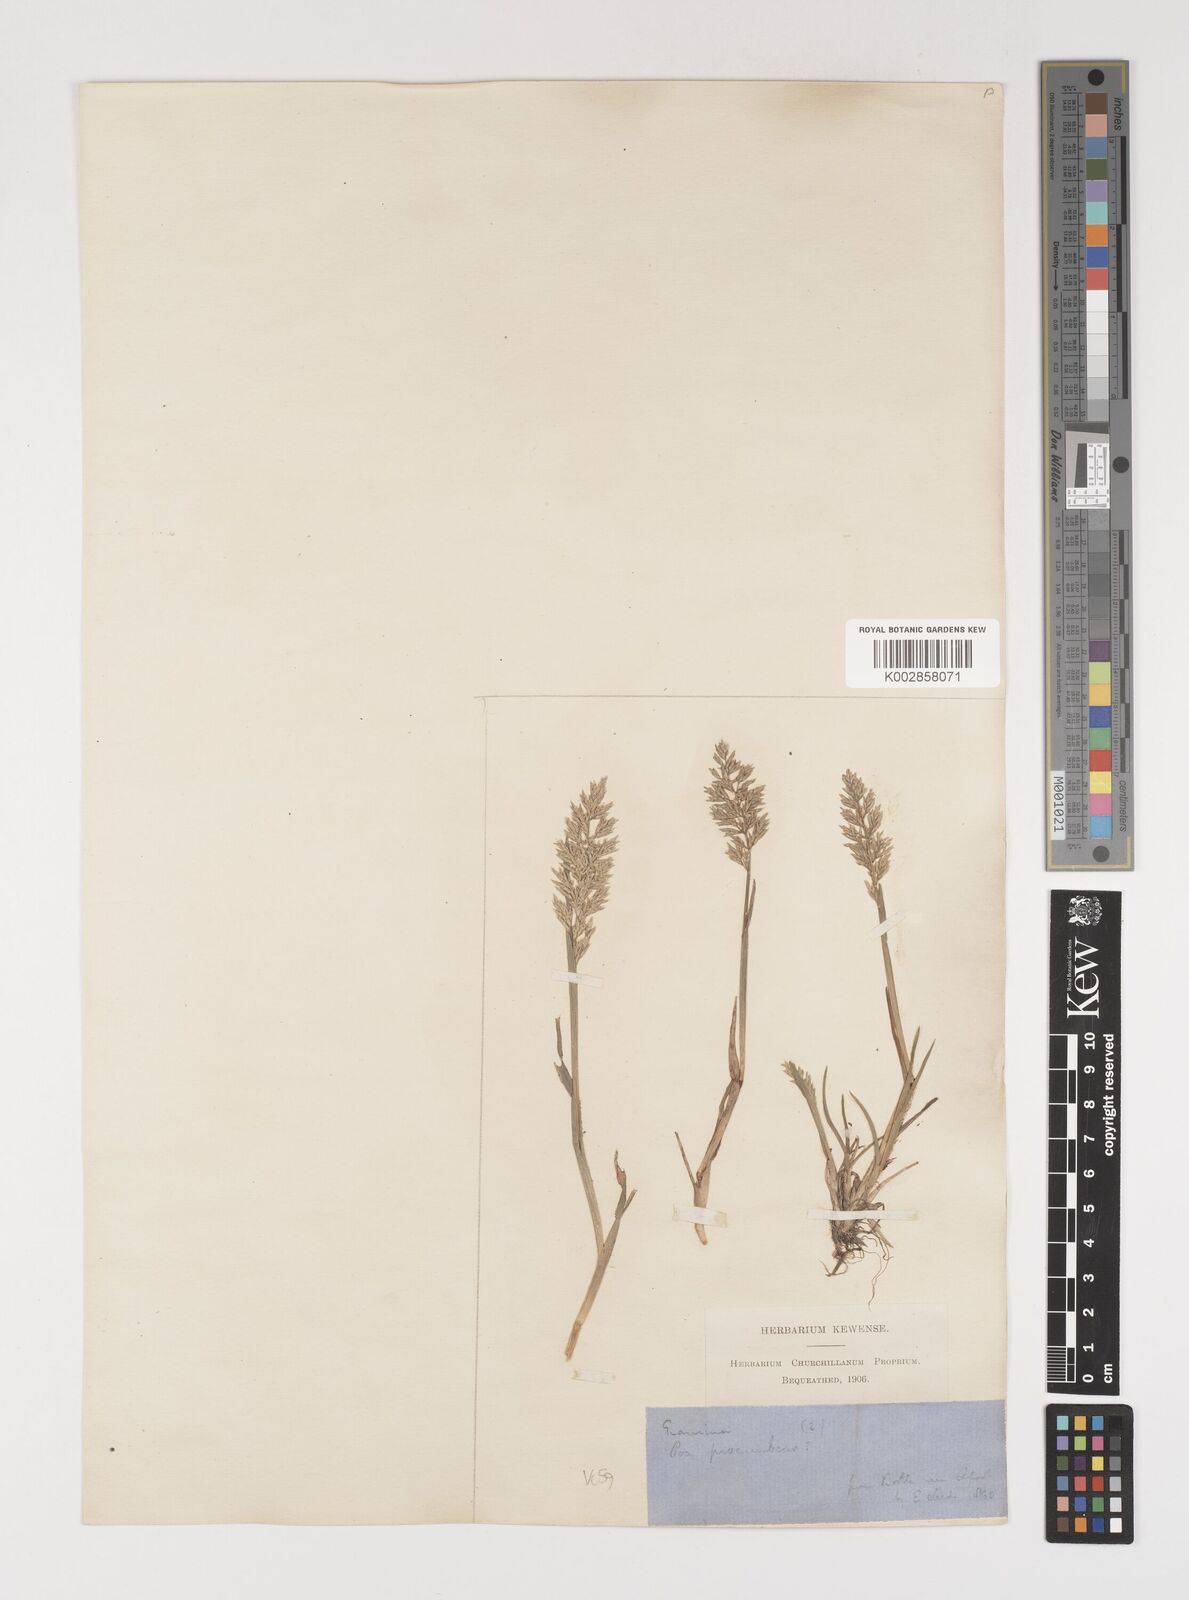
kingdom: Plantae
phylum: Tracheophyta
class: Liliopsida
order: Poales
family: Poaceae
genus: Puccinellia
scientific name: Puccinellia rupestris
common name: Stiff saltmarsh-grass
